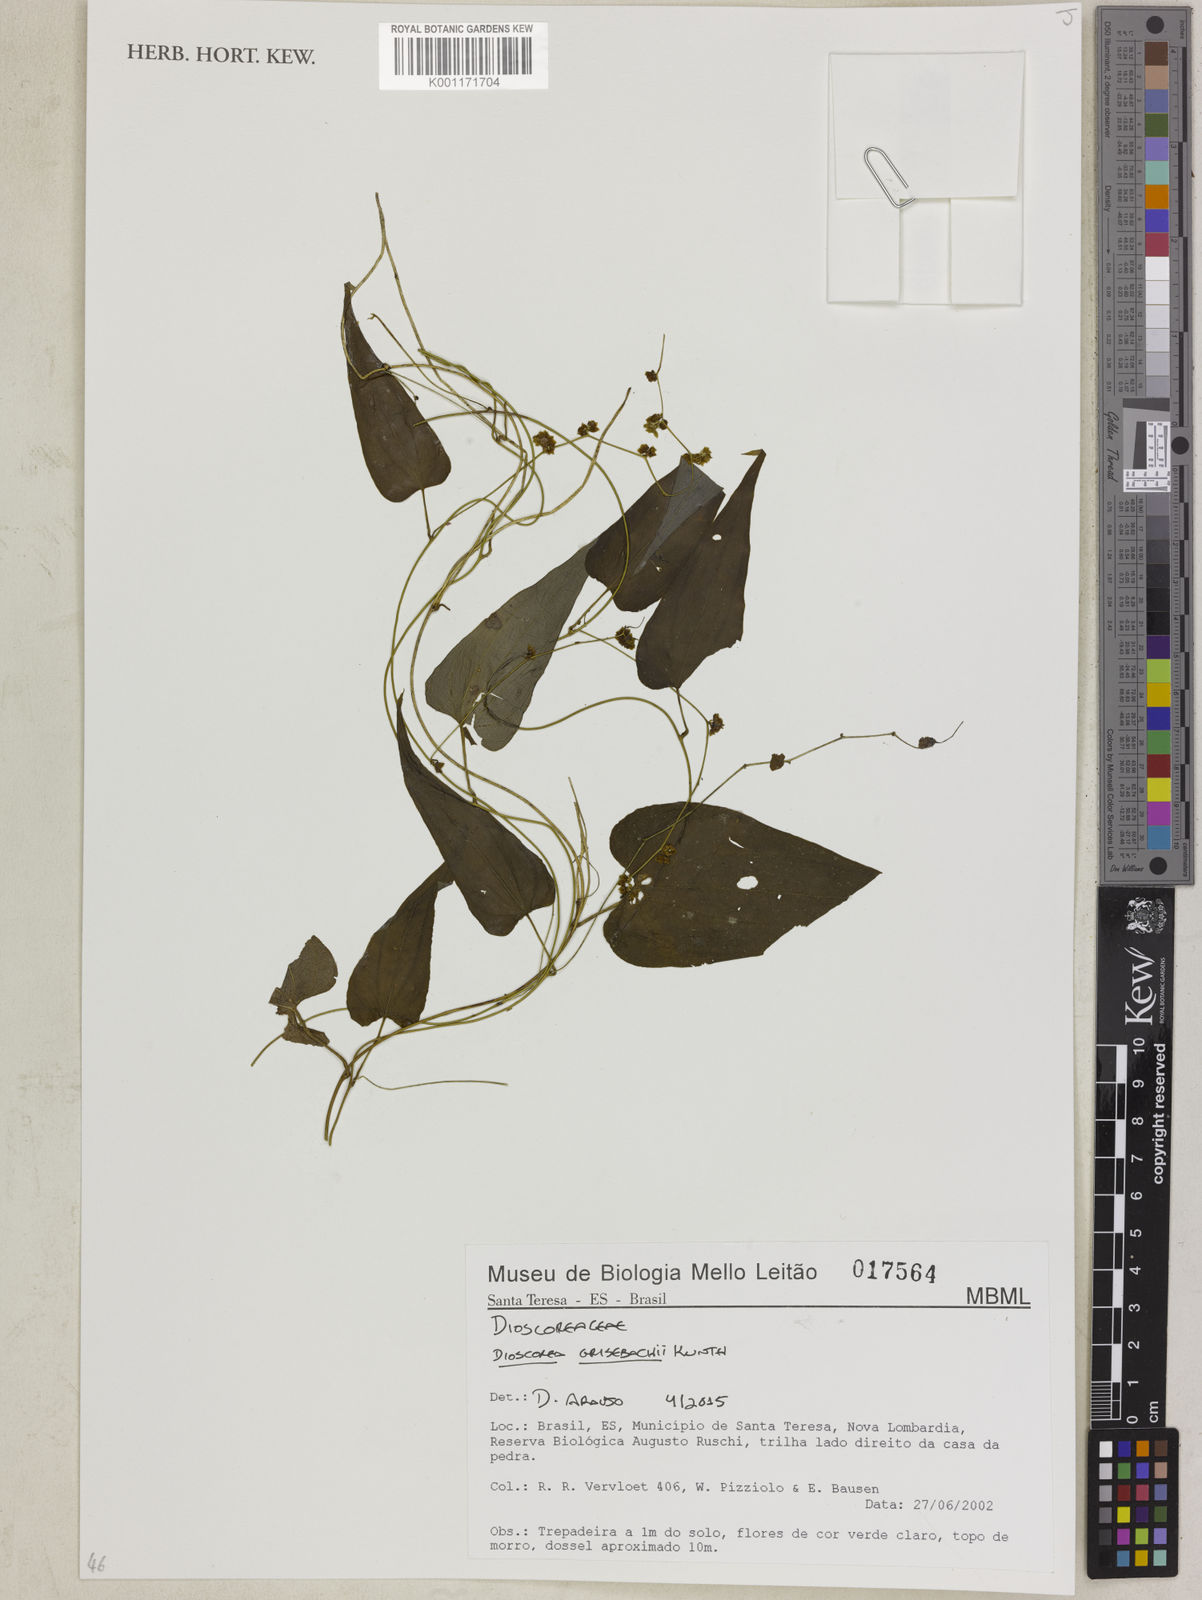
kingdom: Plantae
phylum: Tracheophyta
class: Liliopsida
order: Dioscoreales
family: Dioscoreaceae
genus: Dioscorea
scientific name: Dioscorea grisebachii
